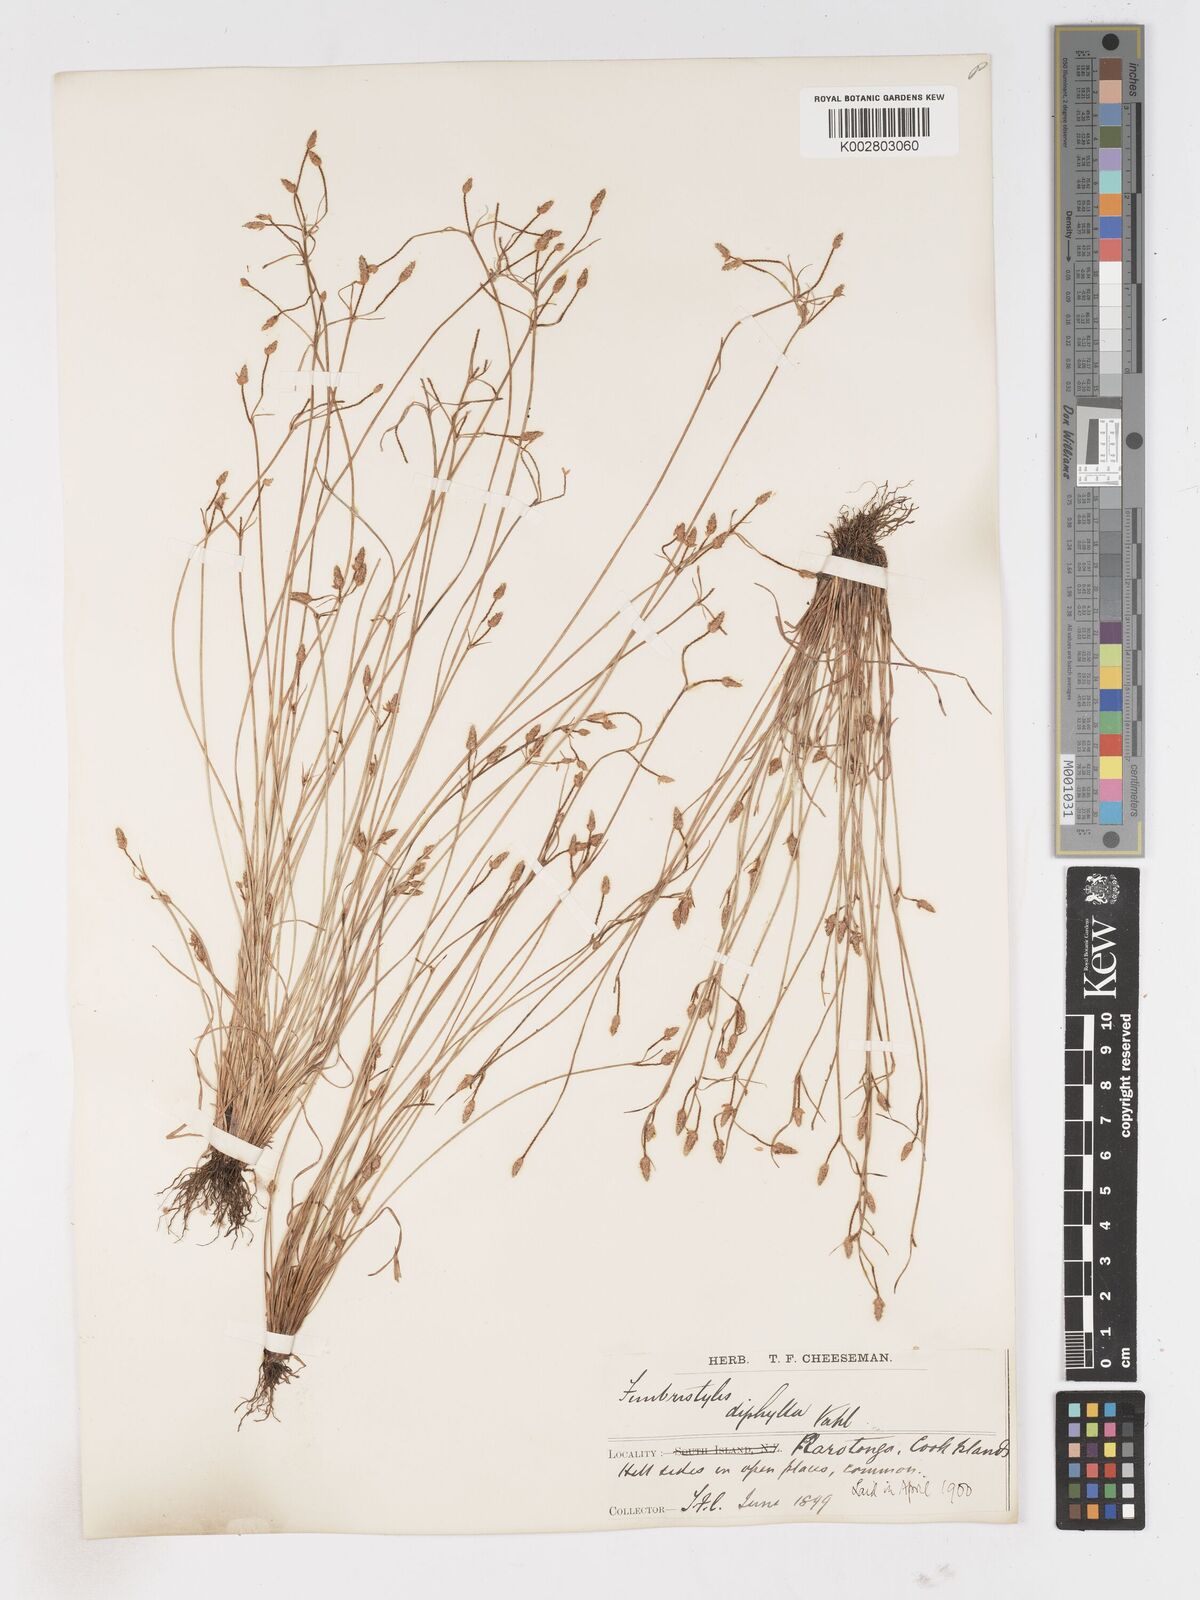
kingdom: Plantae
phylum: Tracheophyta
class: Liliopsida
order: Poales
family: Cyperaceae
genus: Fimbristylis
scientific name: Fimbristylis dichotoma
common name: Forked fimbry
